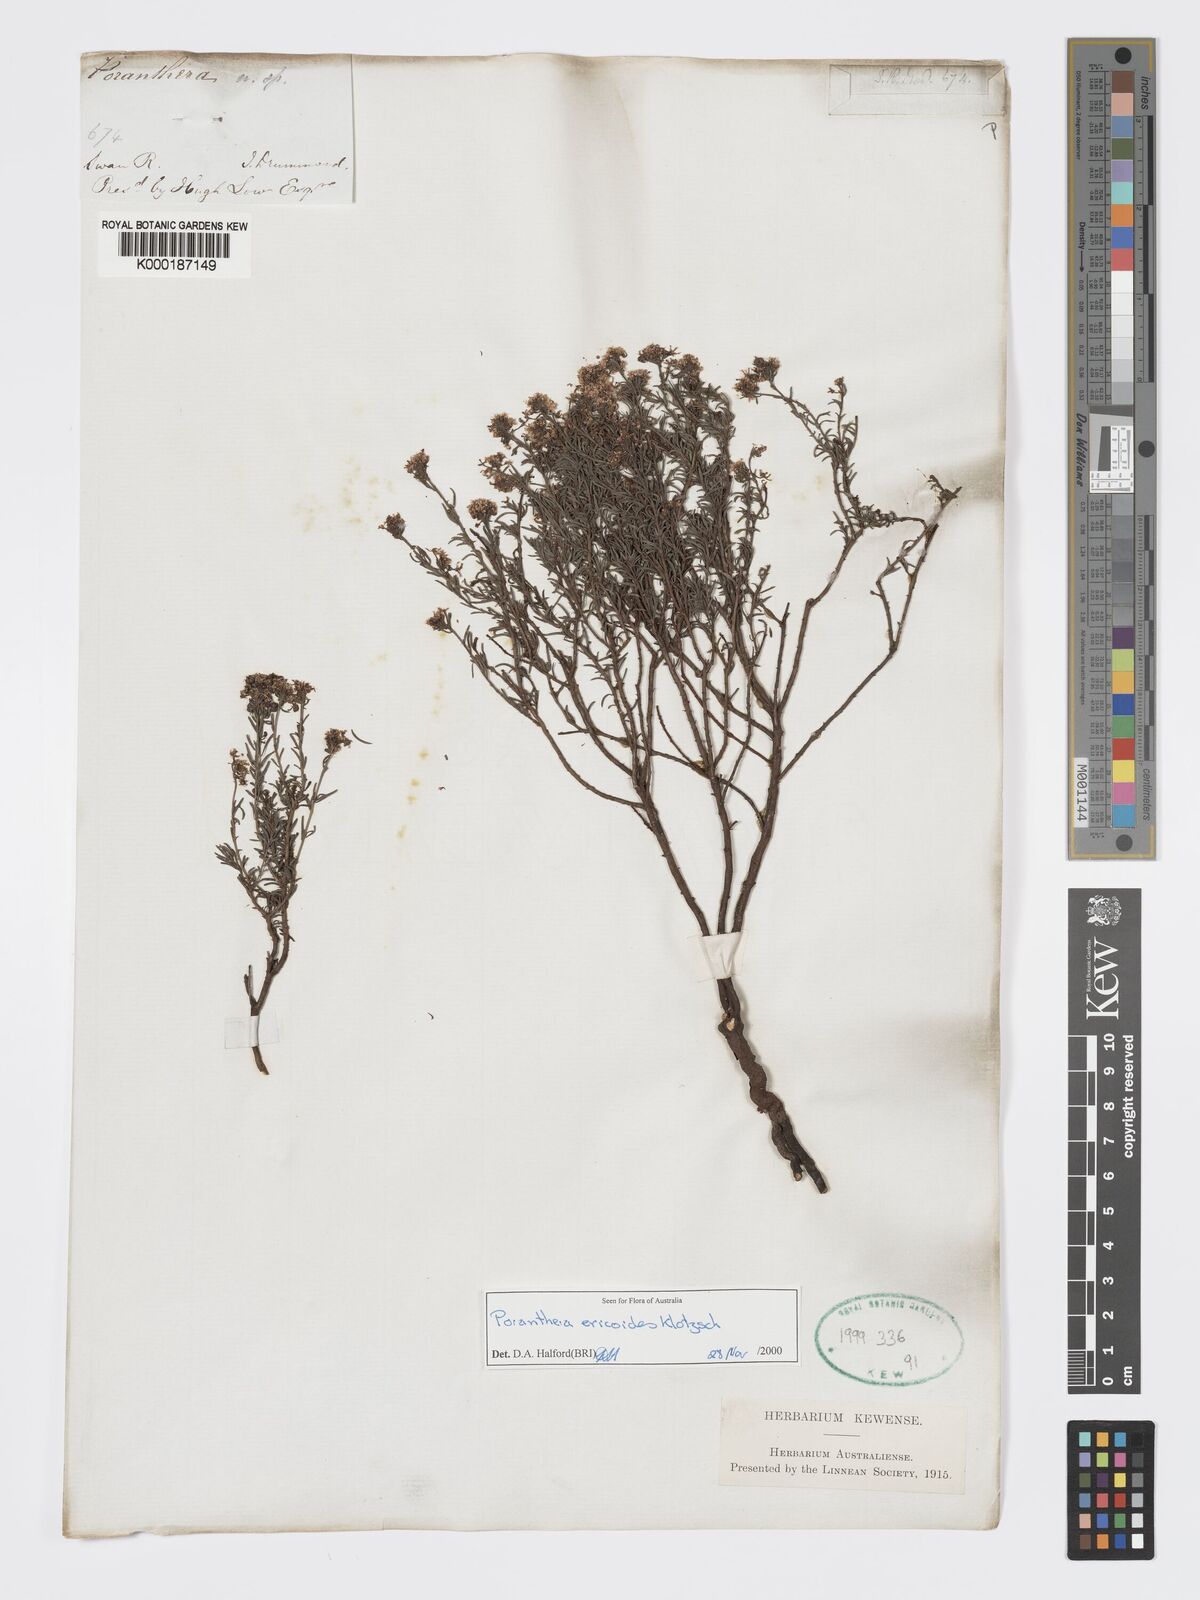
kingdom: Plantae
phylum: Tracheophyta
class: Magnoliopsida
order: Malpighiales
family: Phyllanthaceae
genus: Poranthera
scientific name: Poranthera ericoides
